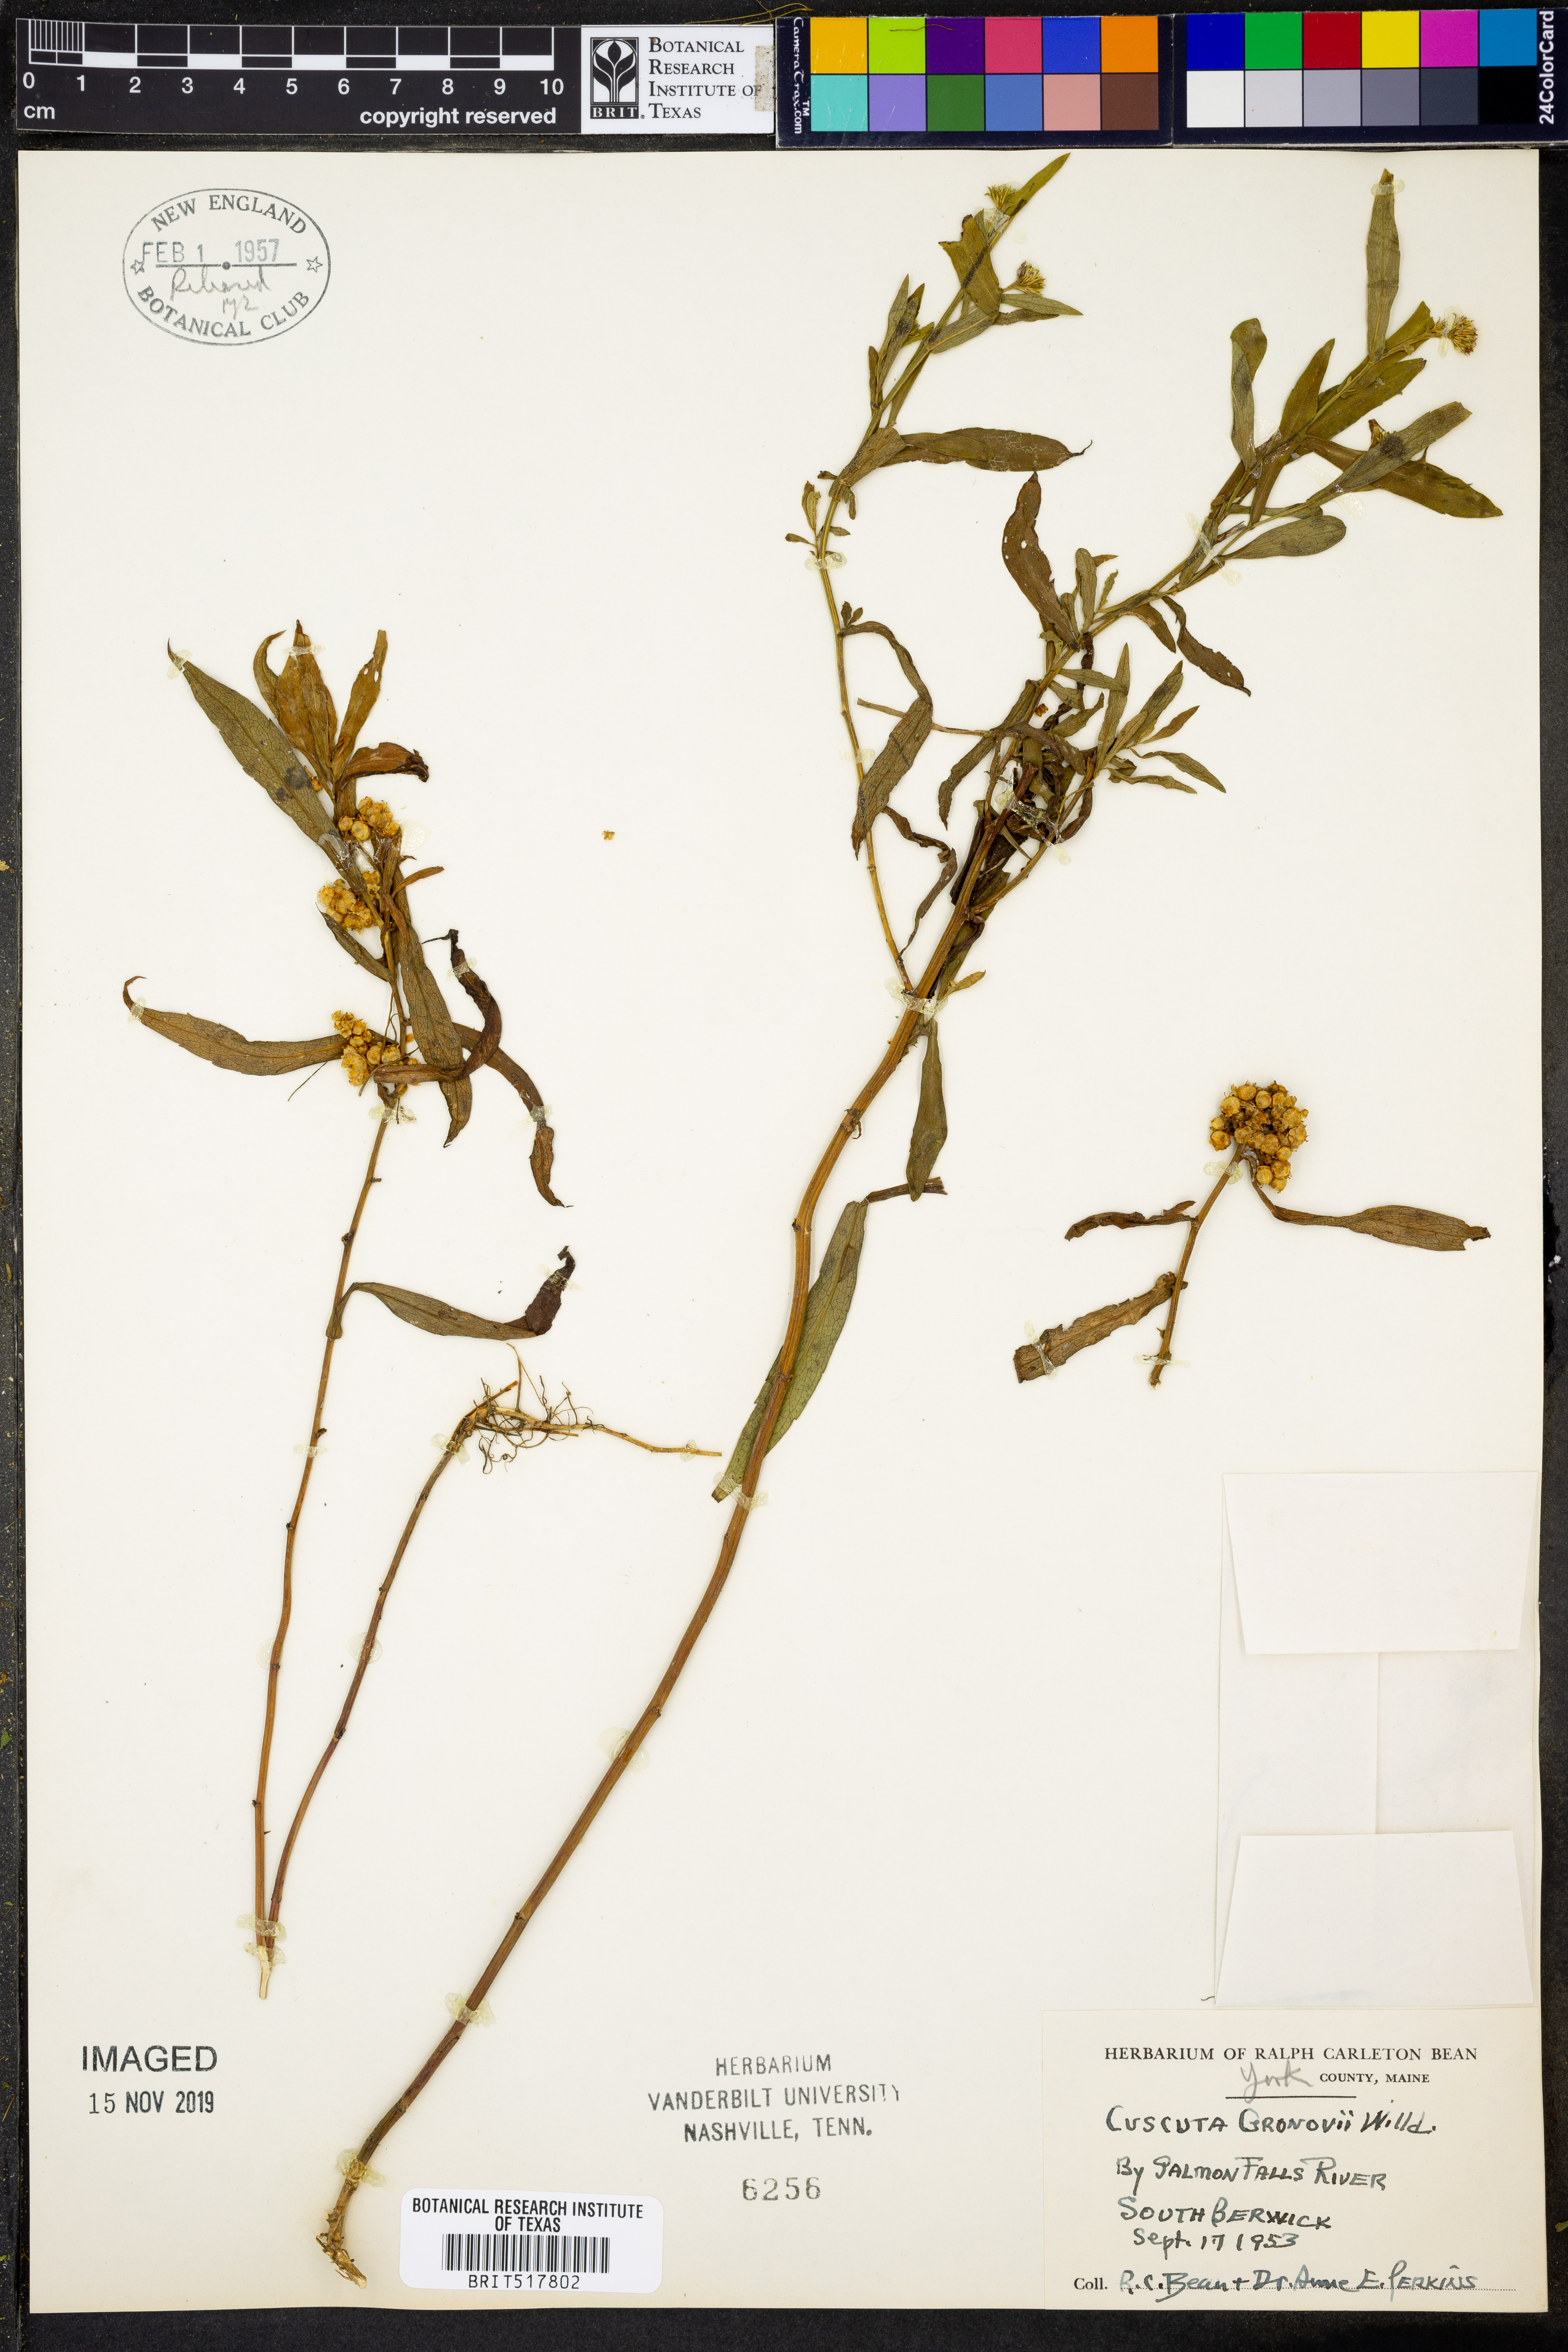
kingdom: Plantae
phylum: Tracheophyta
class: Magnoliopsida
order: Solanales
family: Convolvulaceae
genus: Cuscuta
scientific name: Cuscuta gronovii
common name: Common dodder
